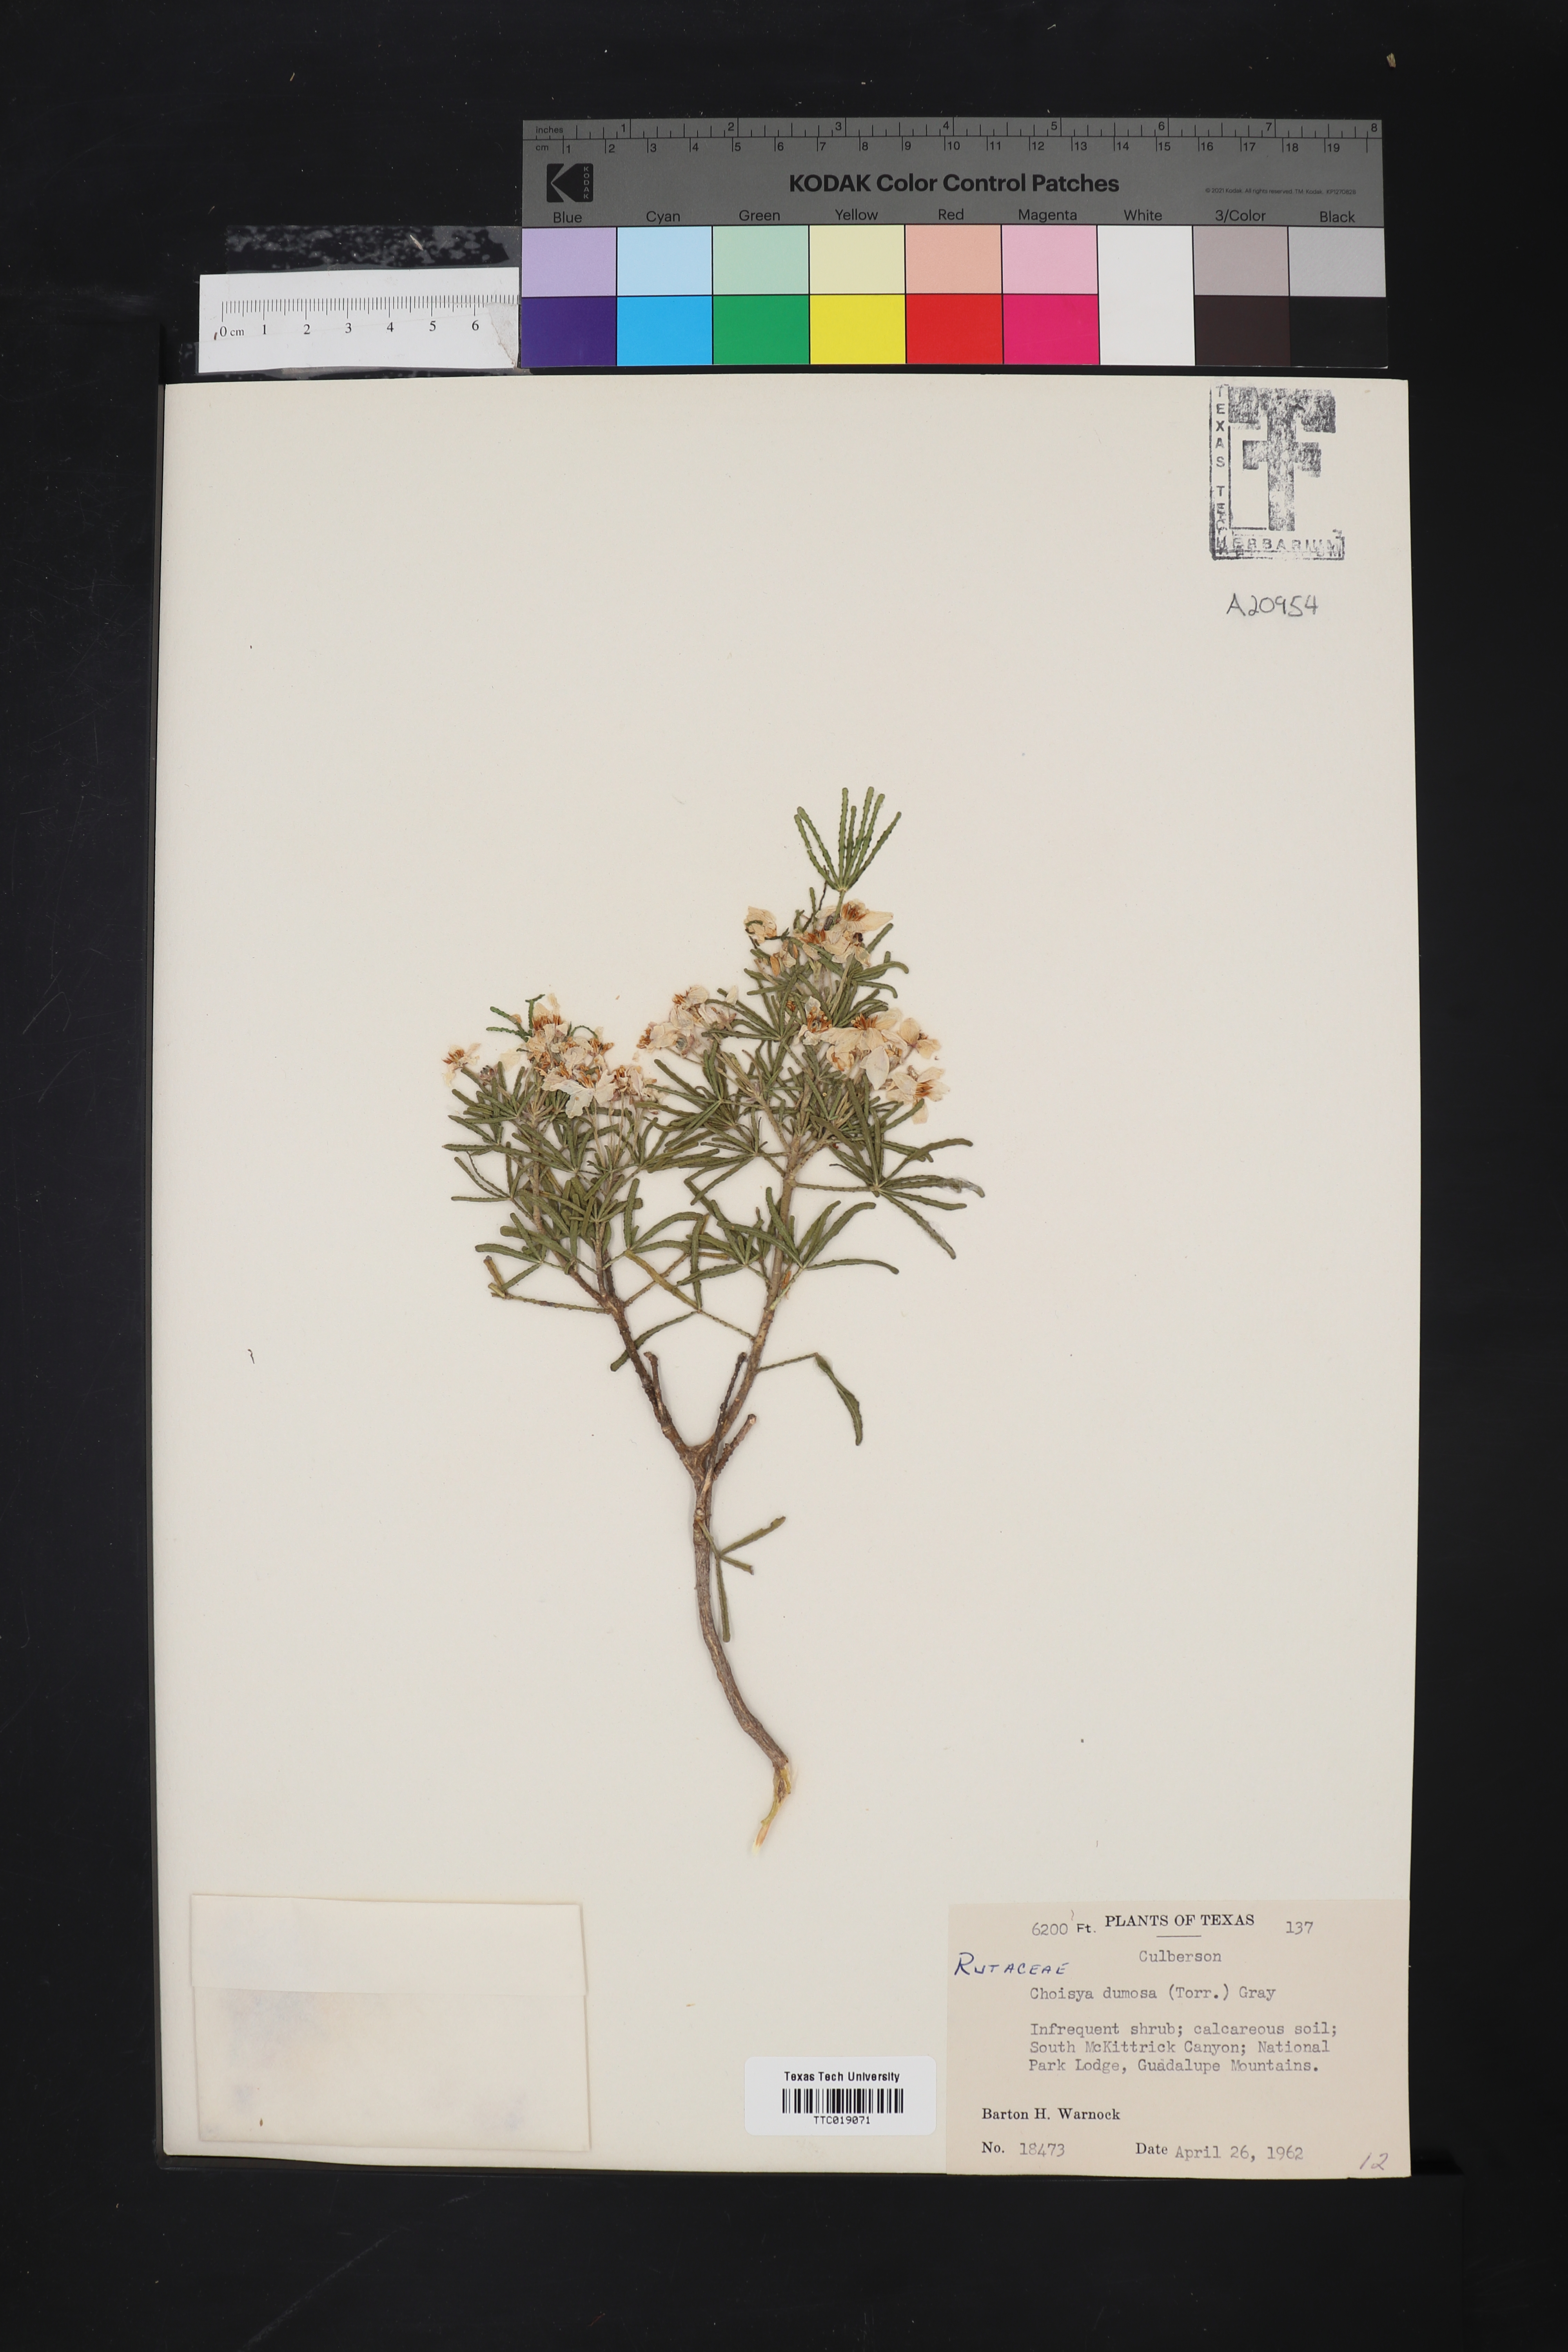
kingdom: Plantae
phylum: Tracheophyta
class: Magnoliopsida
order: Sapindales
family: Rutaceae
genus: Choisya
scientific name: Choisya dumosa
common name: Mexican-orange
